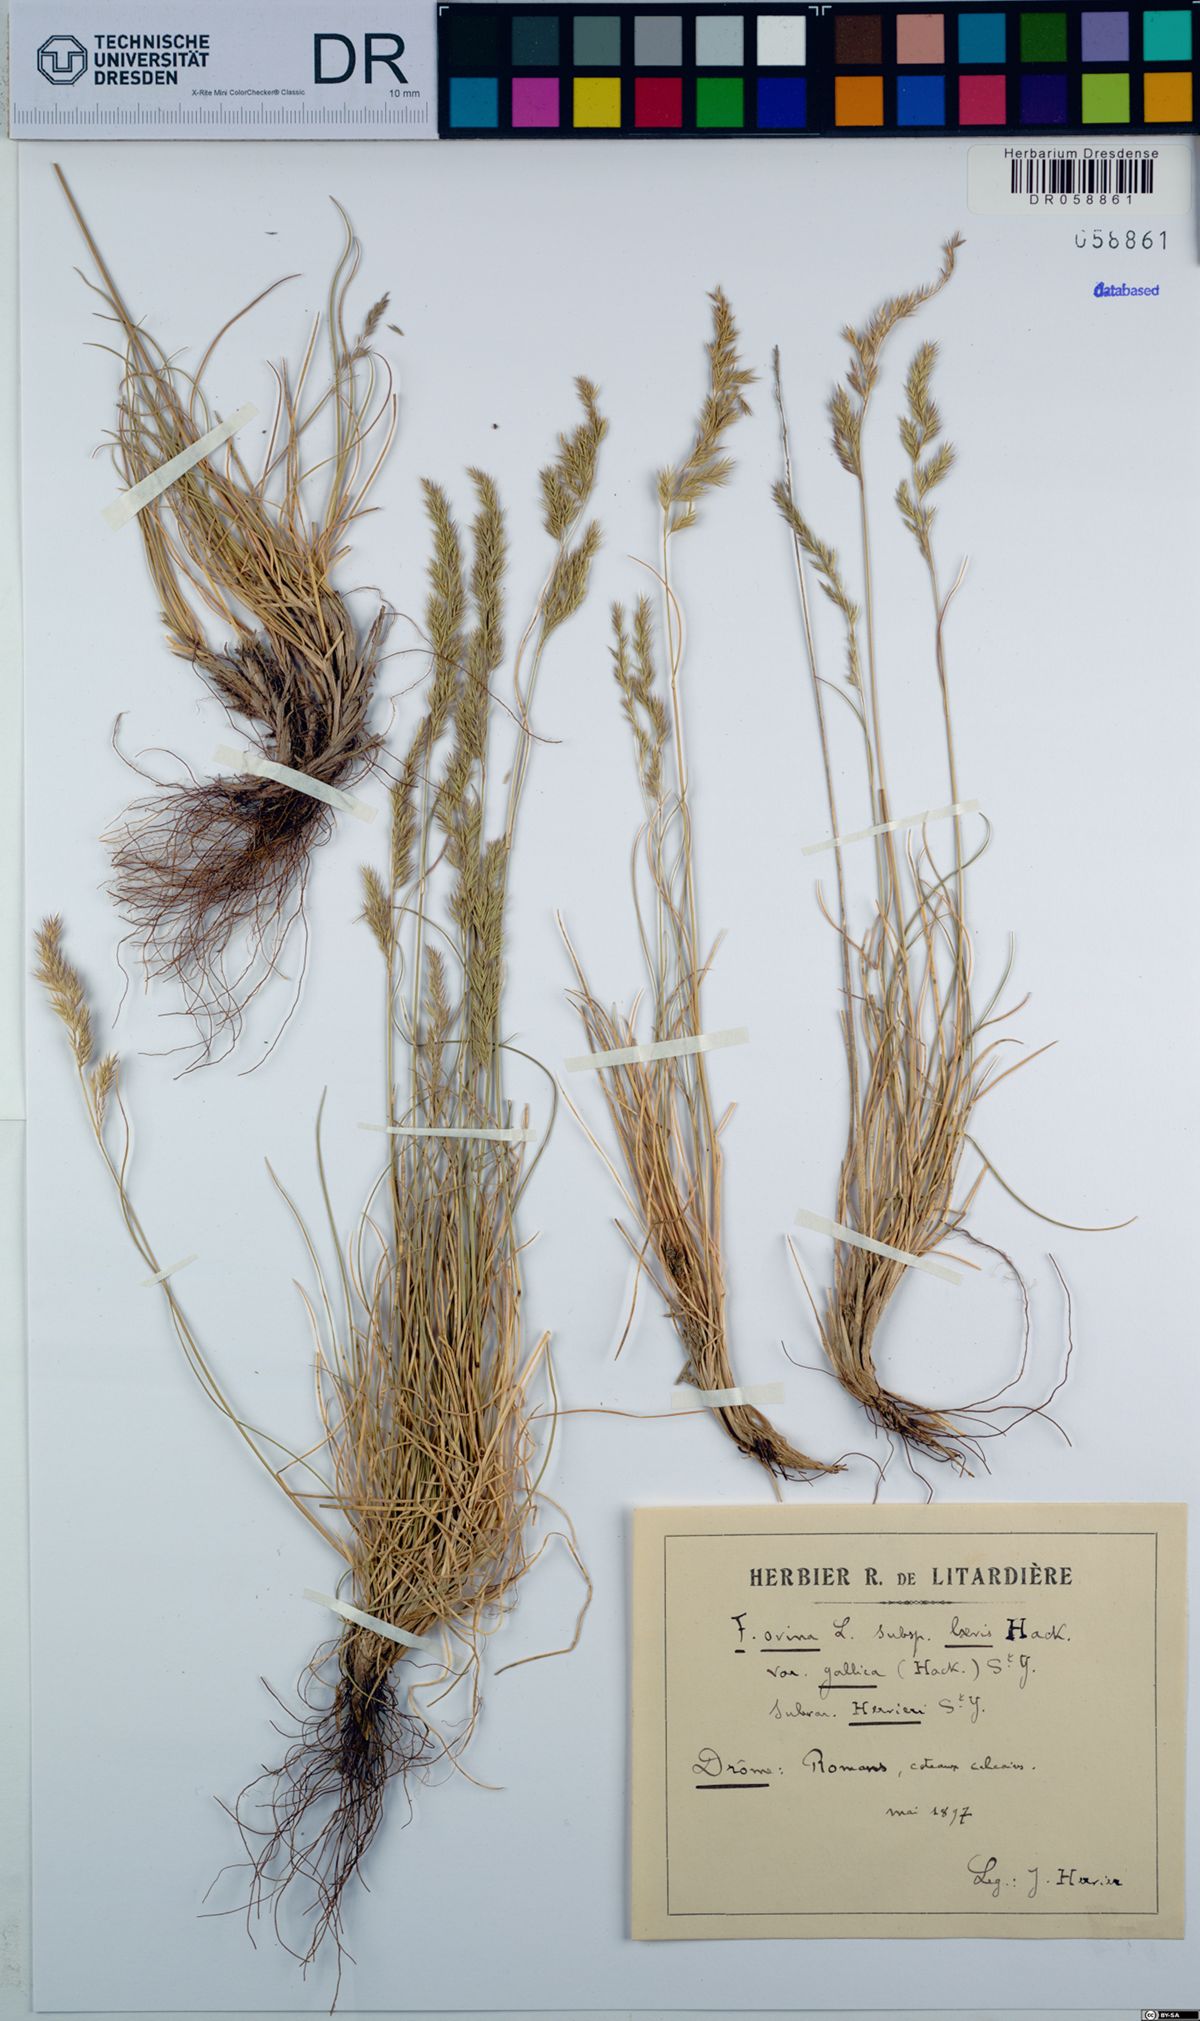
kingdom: Plantae
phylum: Tracheophyta
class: Liliopsida
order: Poales
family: Poaceae
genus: Festuca
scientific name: Festuca marginata
